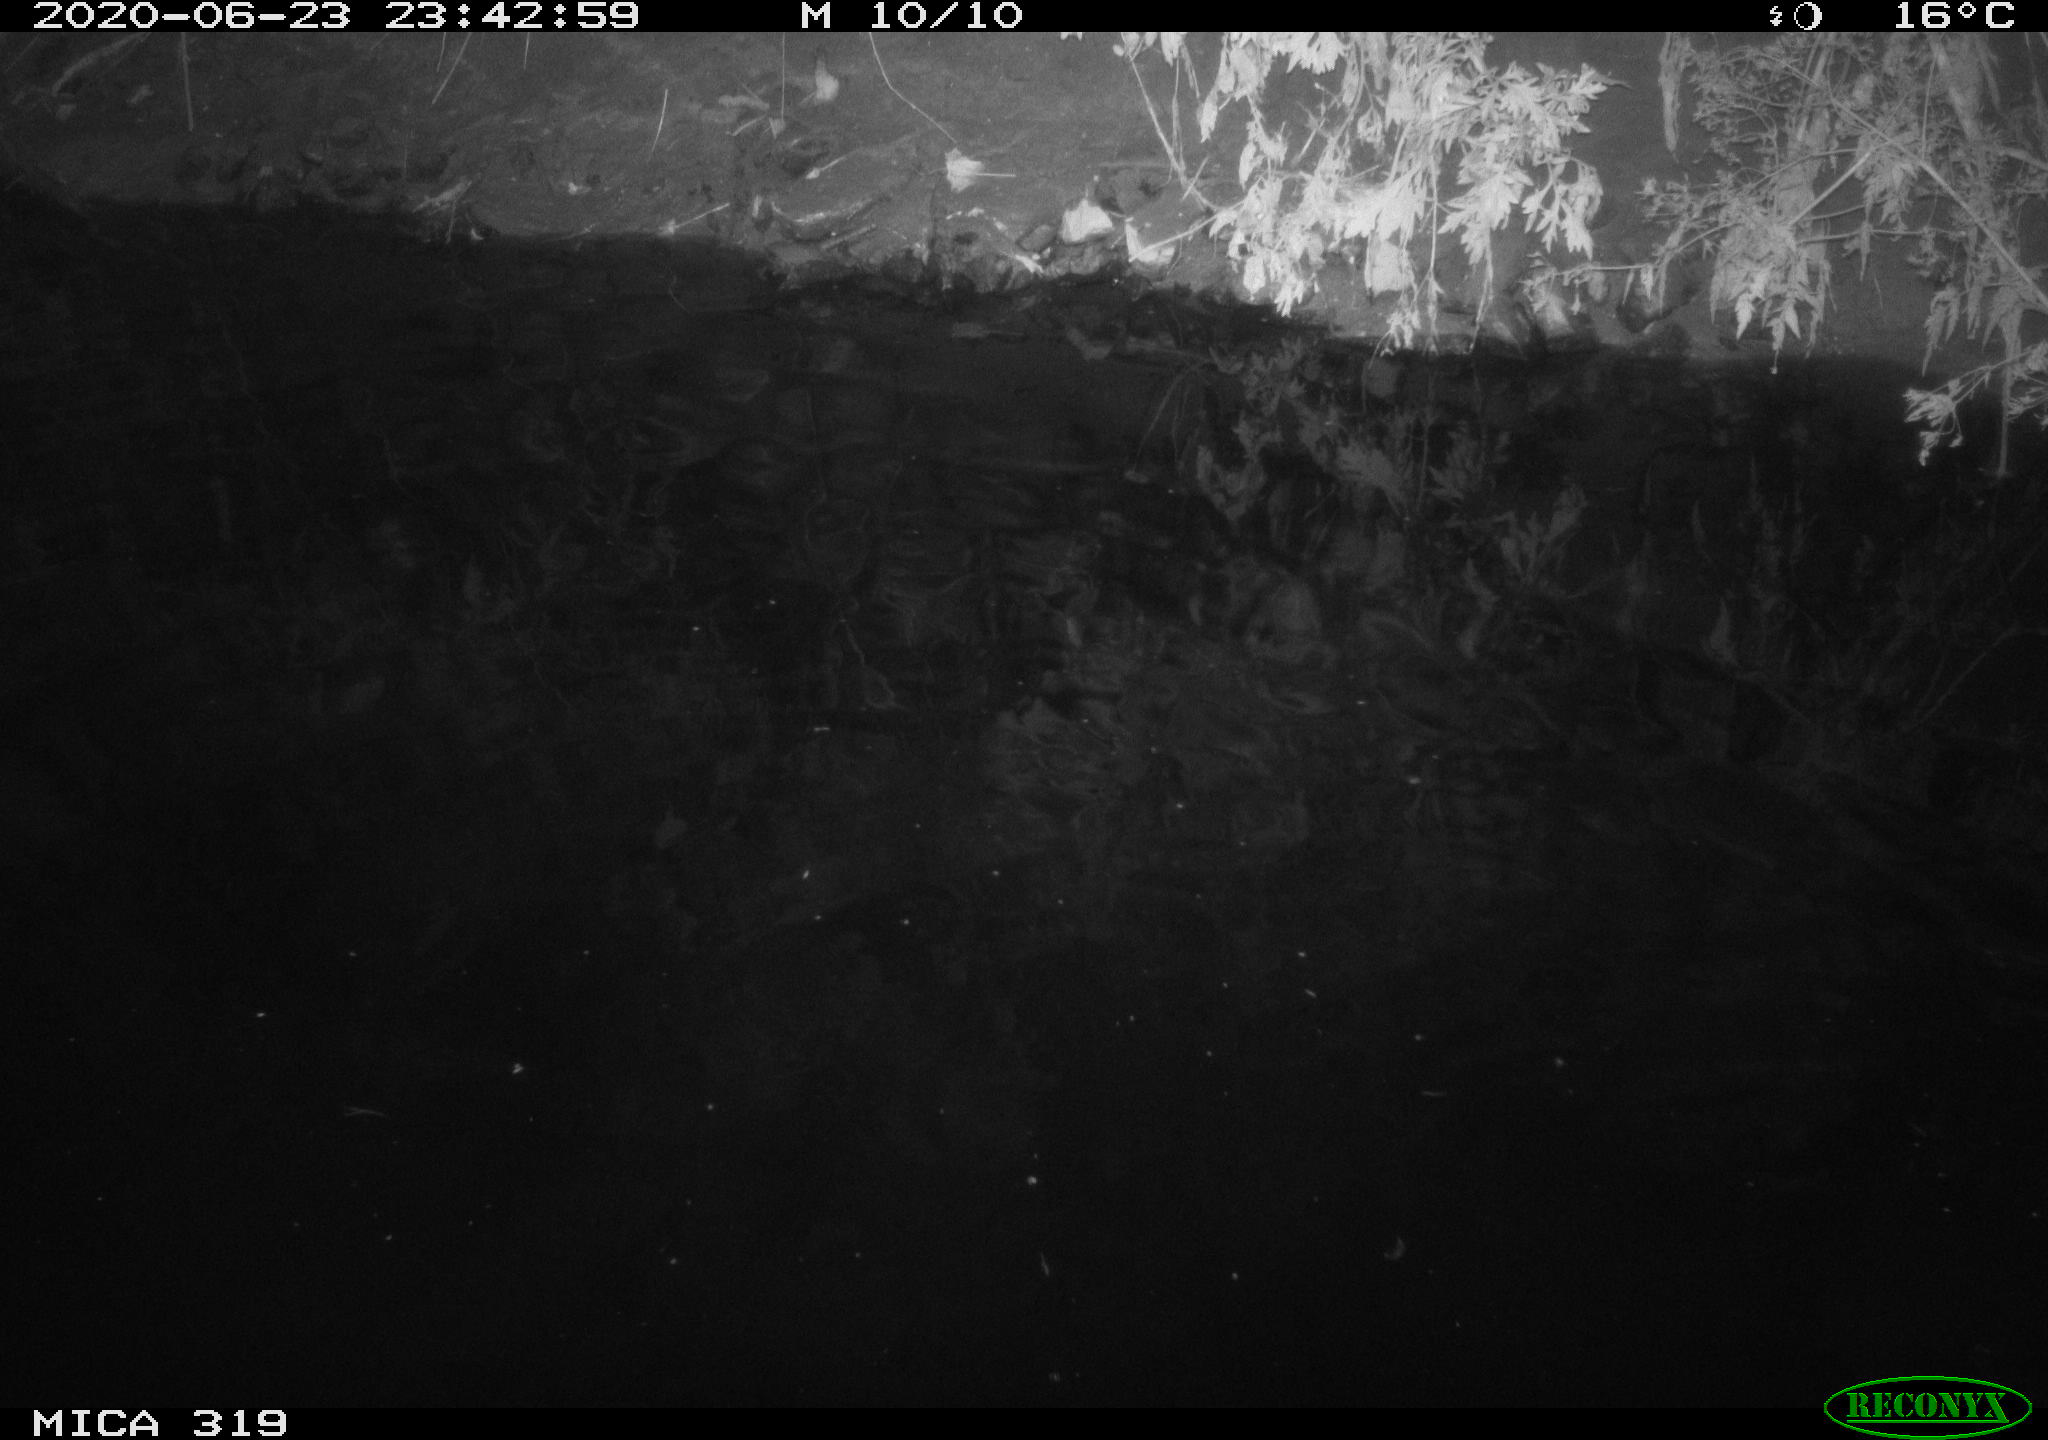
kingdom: Animalia
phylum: Chordata
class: Aves
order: Anseriformes
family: Anatidae
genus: Anas
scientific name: Anas platyrhynchos
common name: Mallard
